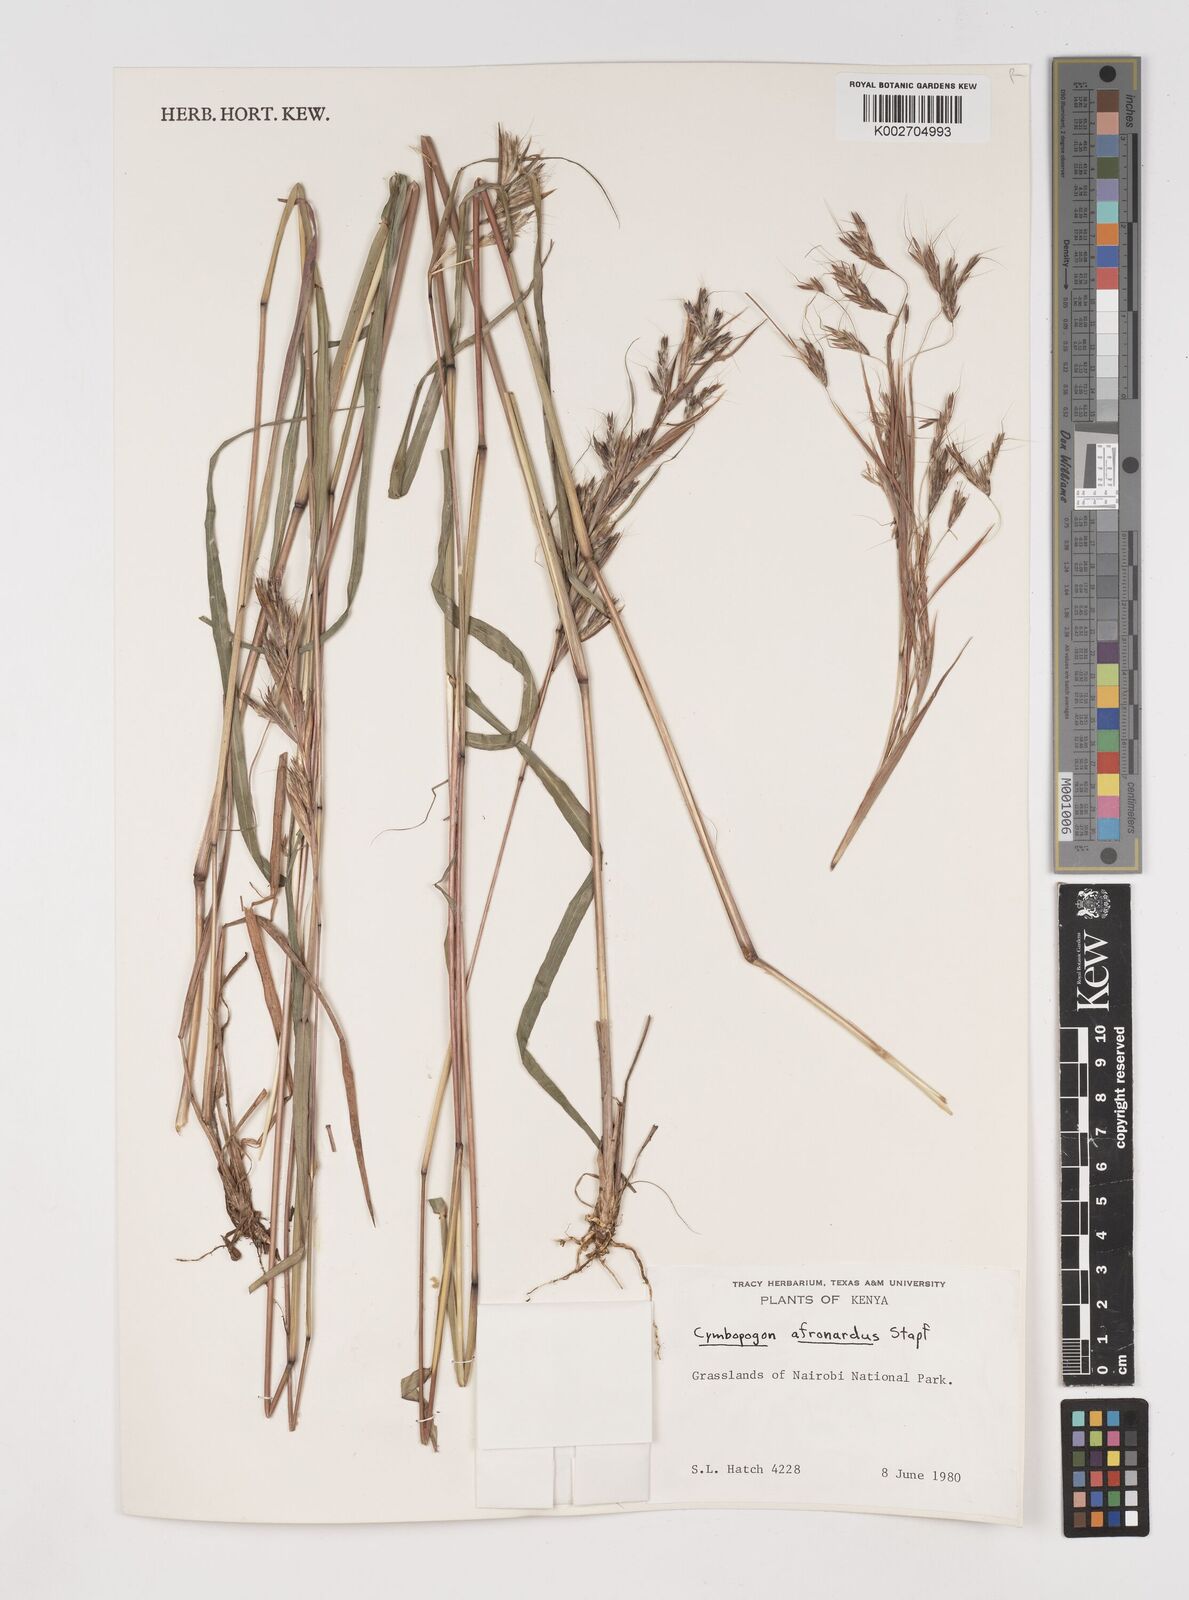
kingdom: Plantae
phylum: Tracheophyta
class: Liliopsida
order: Poales
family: Poaceae
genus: Cymbopogon
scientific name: Cymbopogon nardus
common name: Giant turpentine grass
